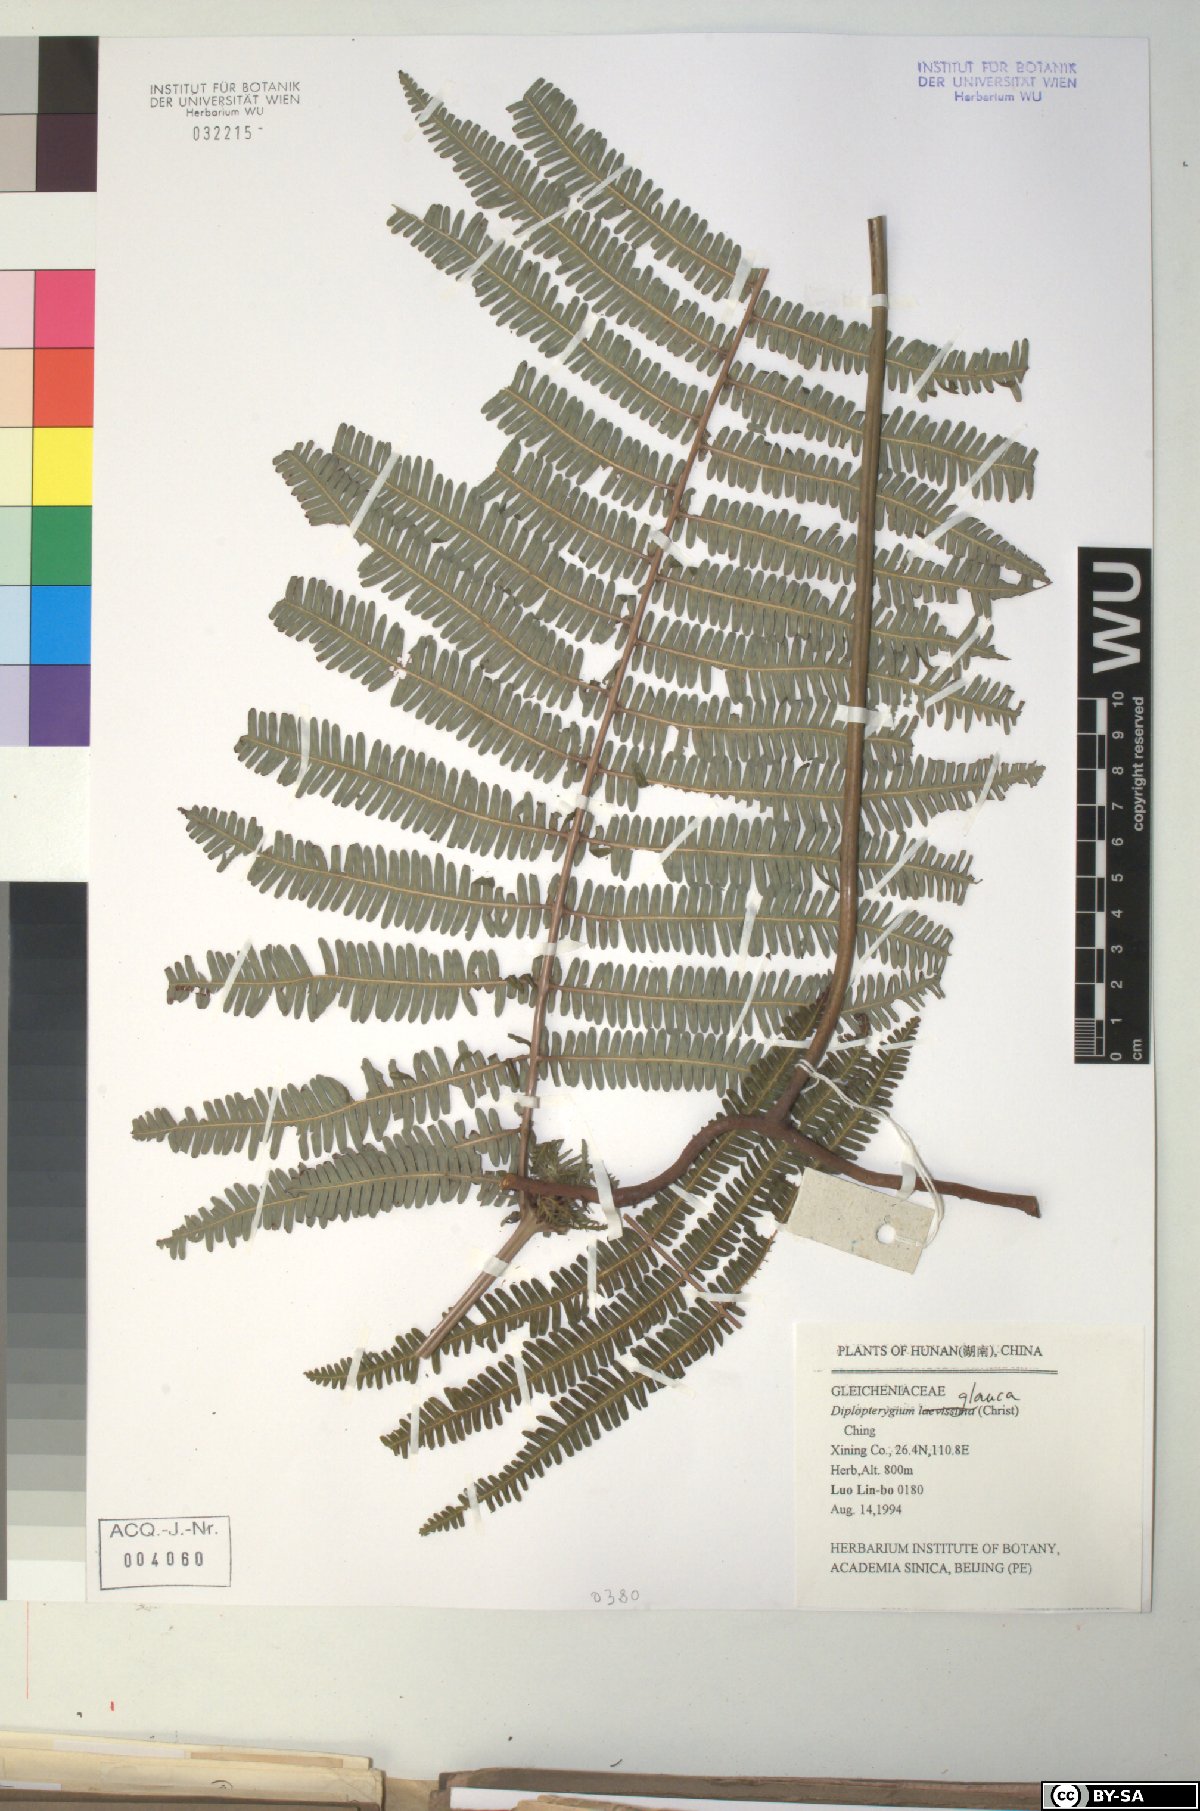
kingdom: Plantae
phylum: Tracheophyta
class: Polypodiopsida
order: Gleicheniales
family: Gleicheniaceae
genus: Diplopterygium
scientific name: Diplopterygium glaucum
